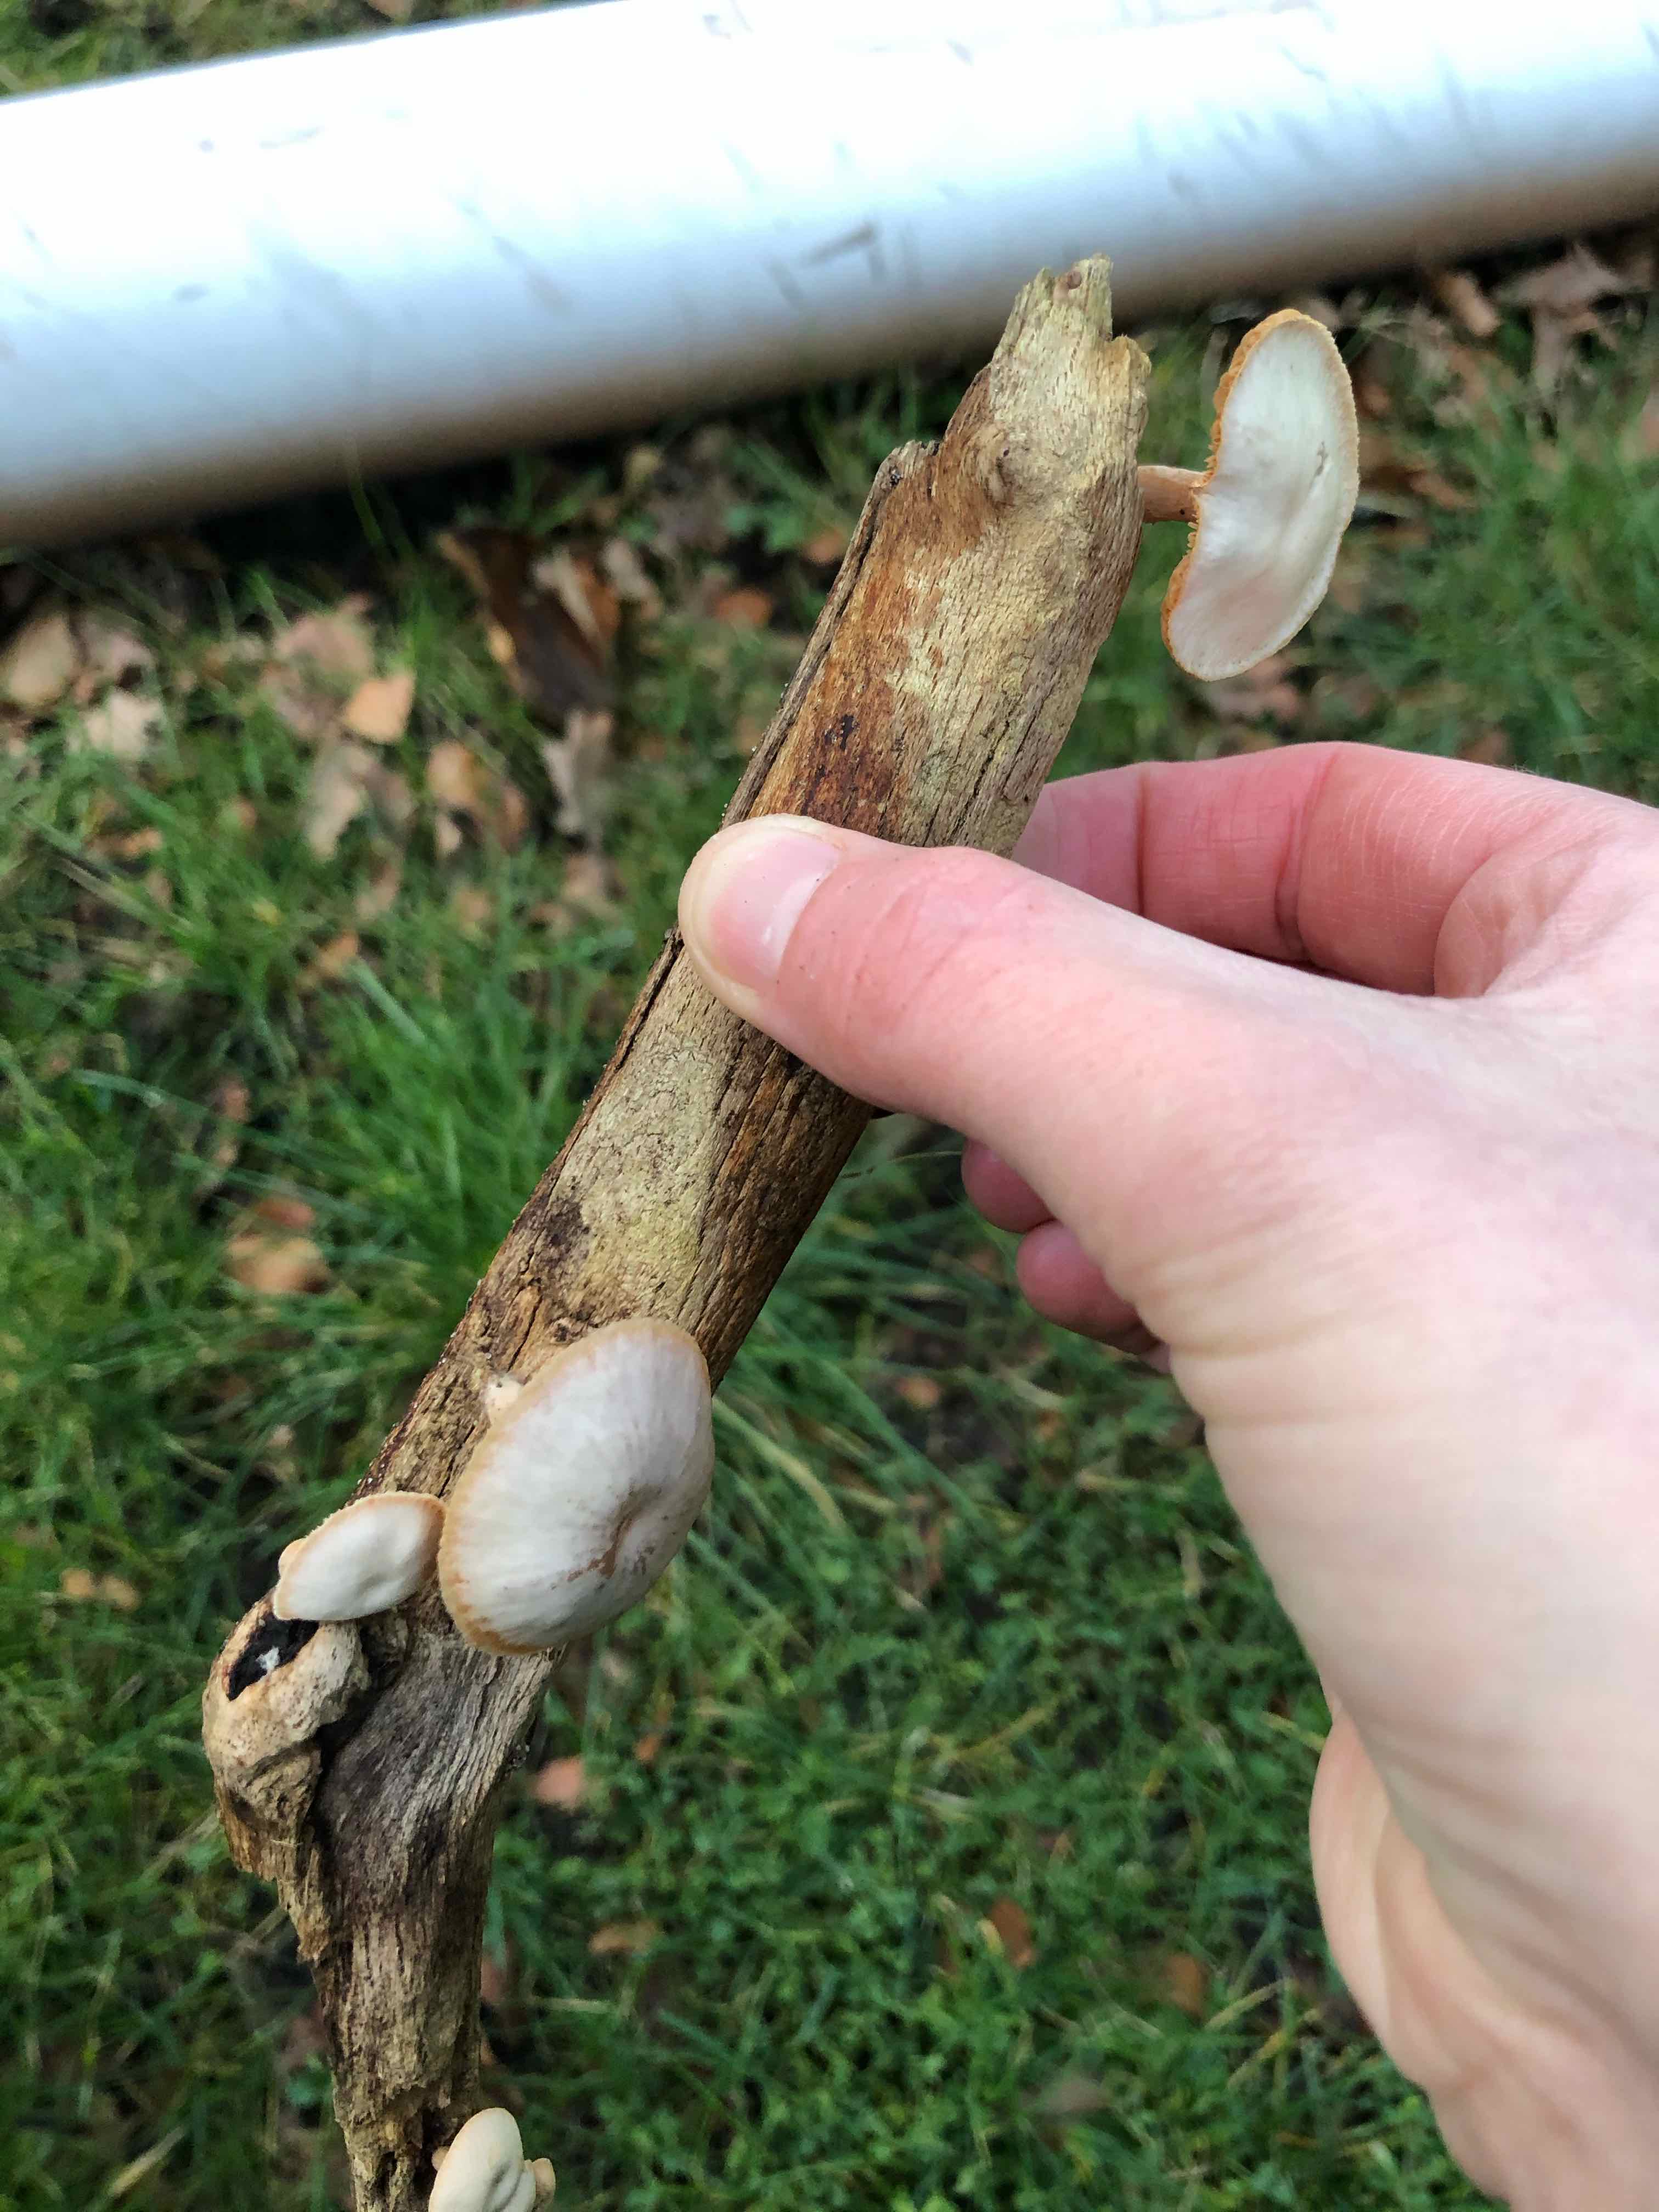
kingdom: Fungi
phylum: Basidiomycota
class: Agaricomycetes
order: Agaricales
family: Tubariaceae
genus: Tubaria
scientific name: Tubaria furfuracea
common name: kliddet fnughat
